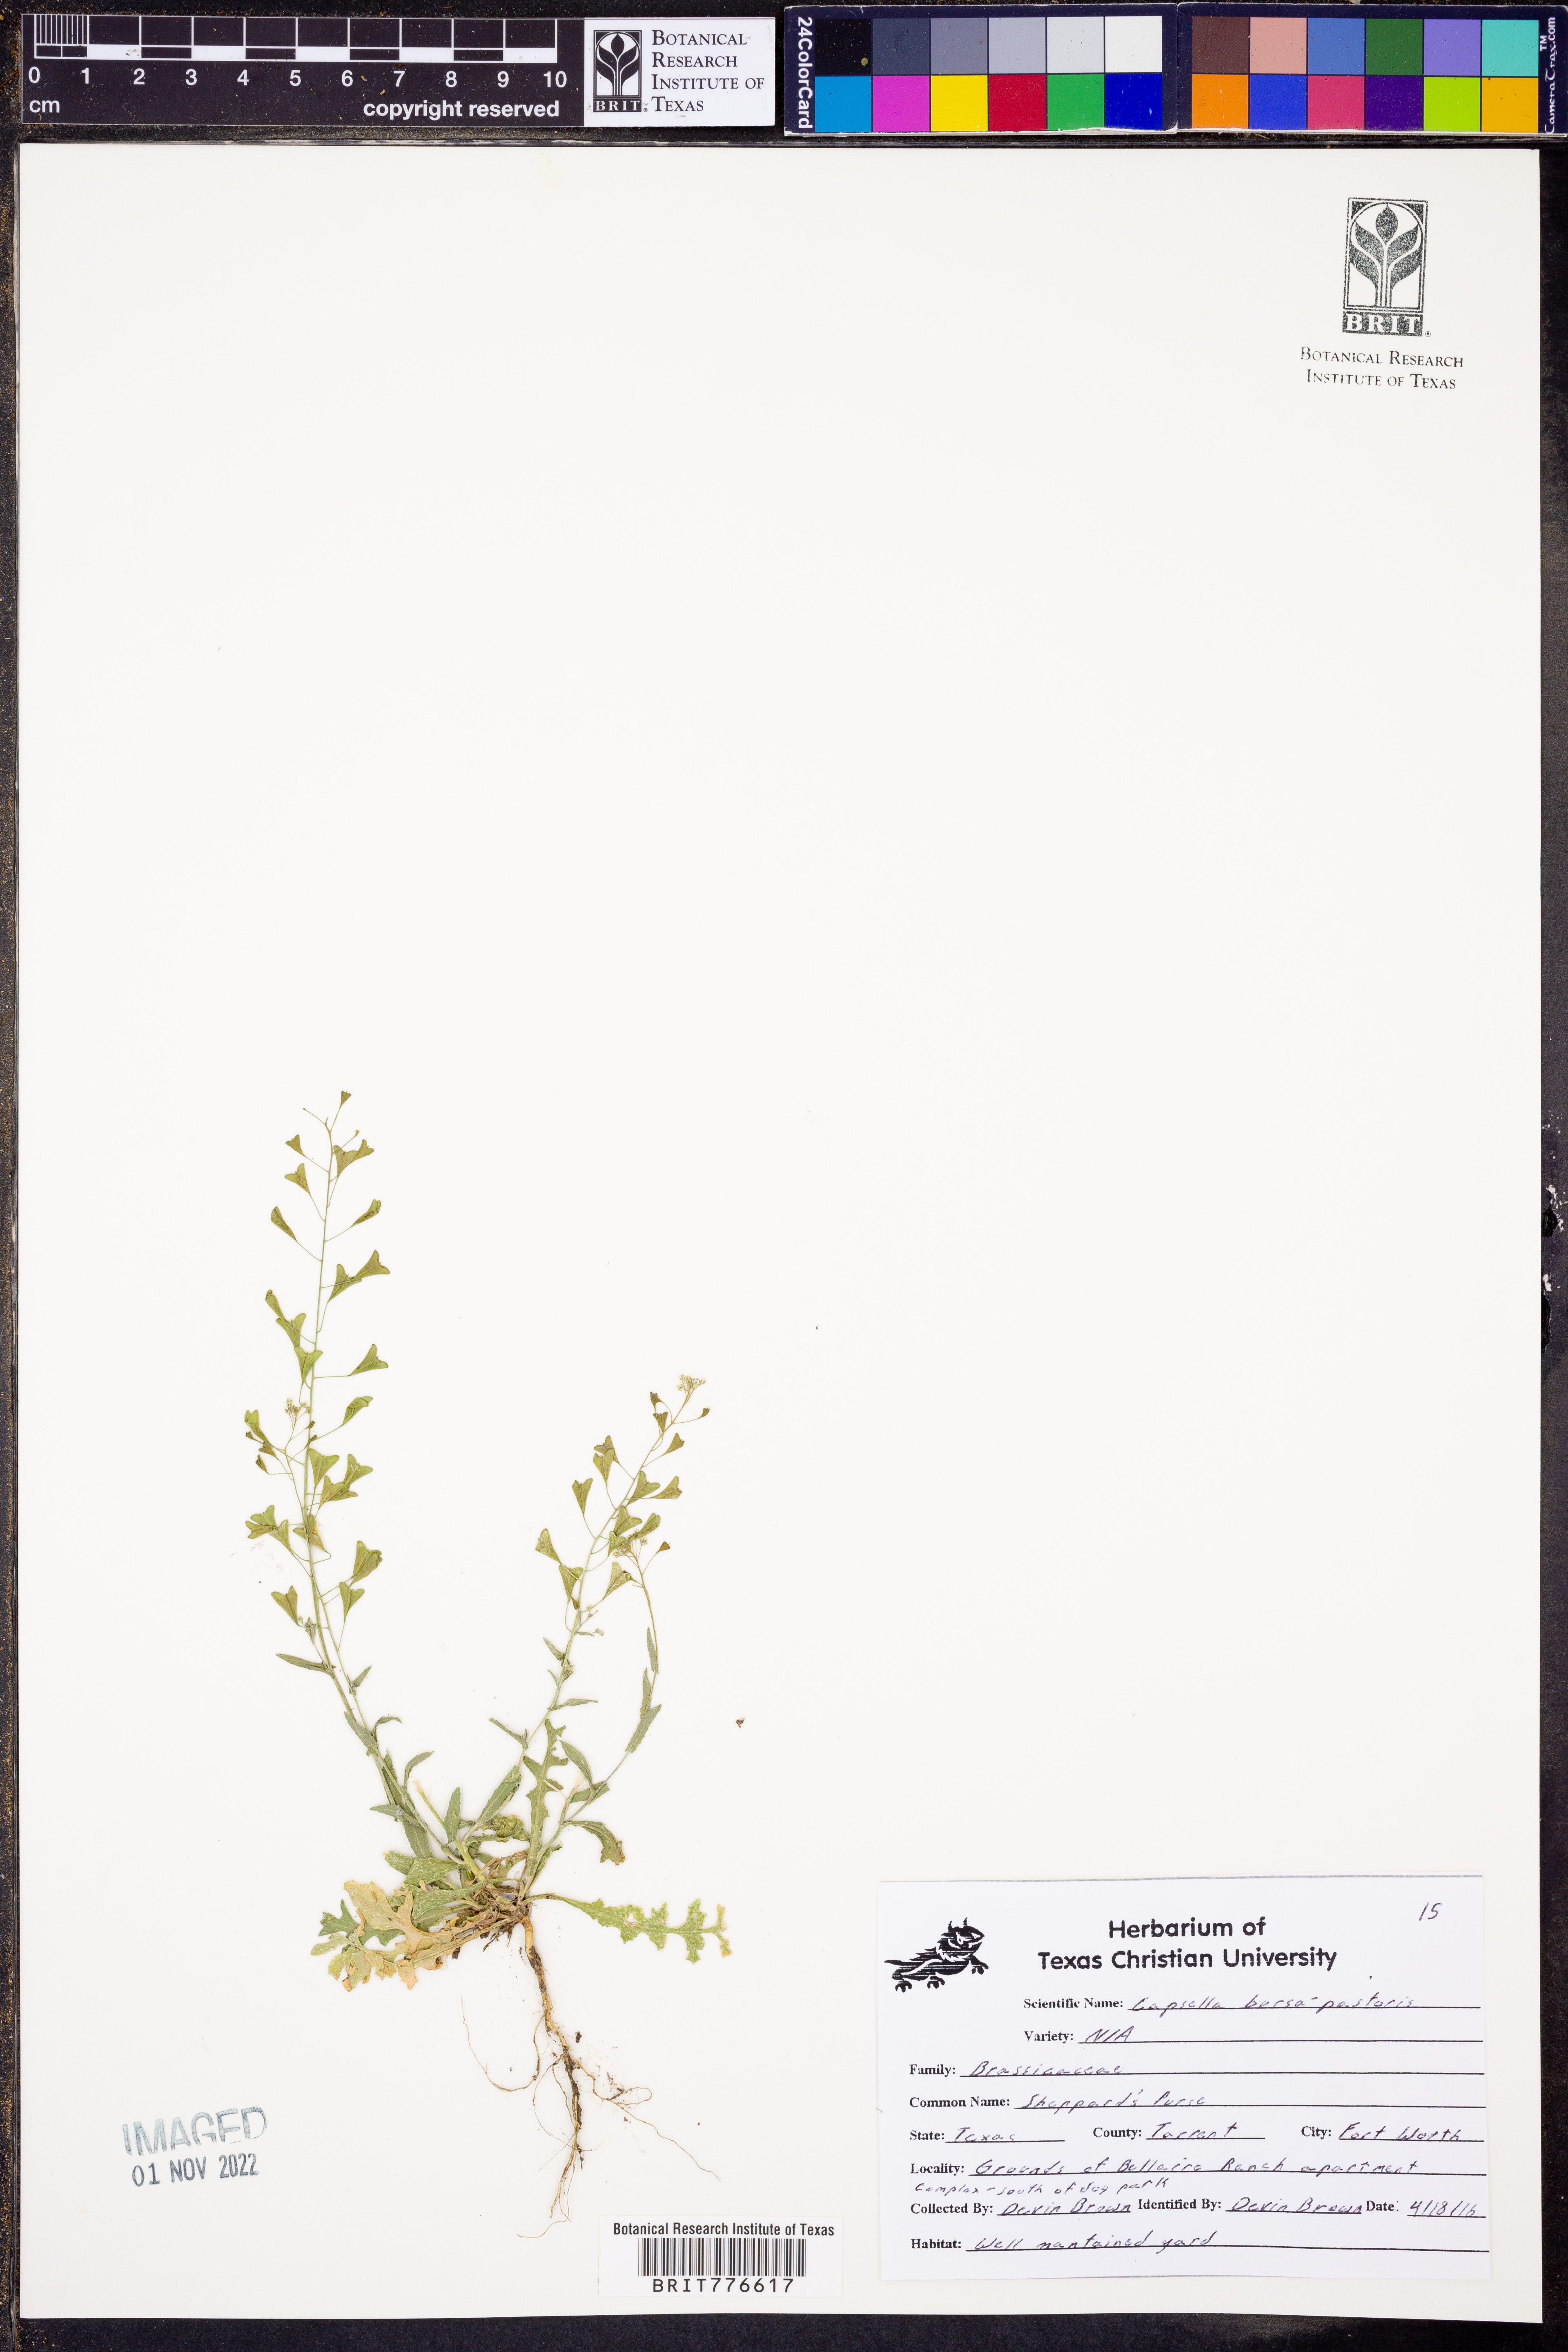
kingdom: Plantae
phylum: Tracheophyta
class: Magnoliopsida
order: Brassicales
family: Brassicaceae
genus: Capsella
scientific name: Capsella bursa-pastoris
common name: Shepherd's purse
